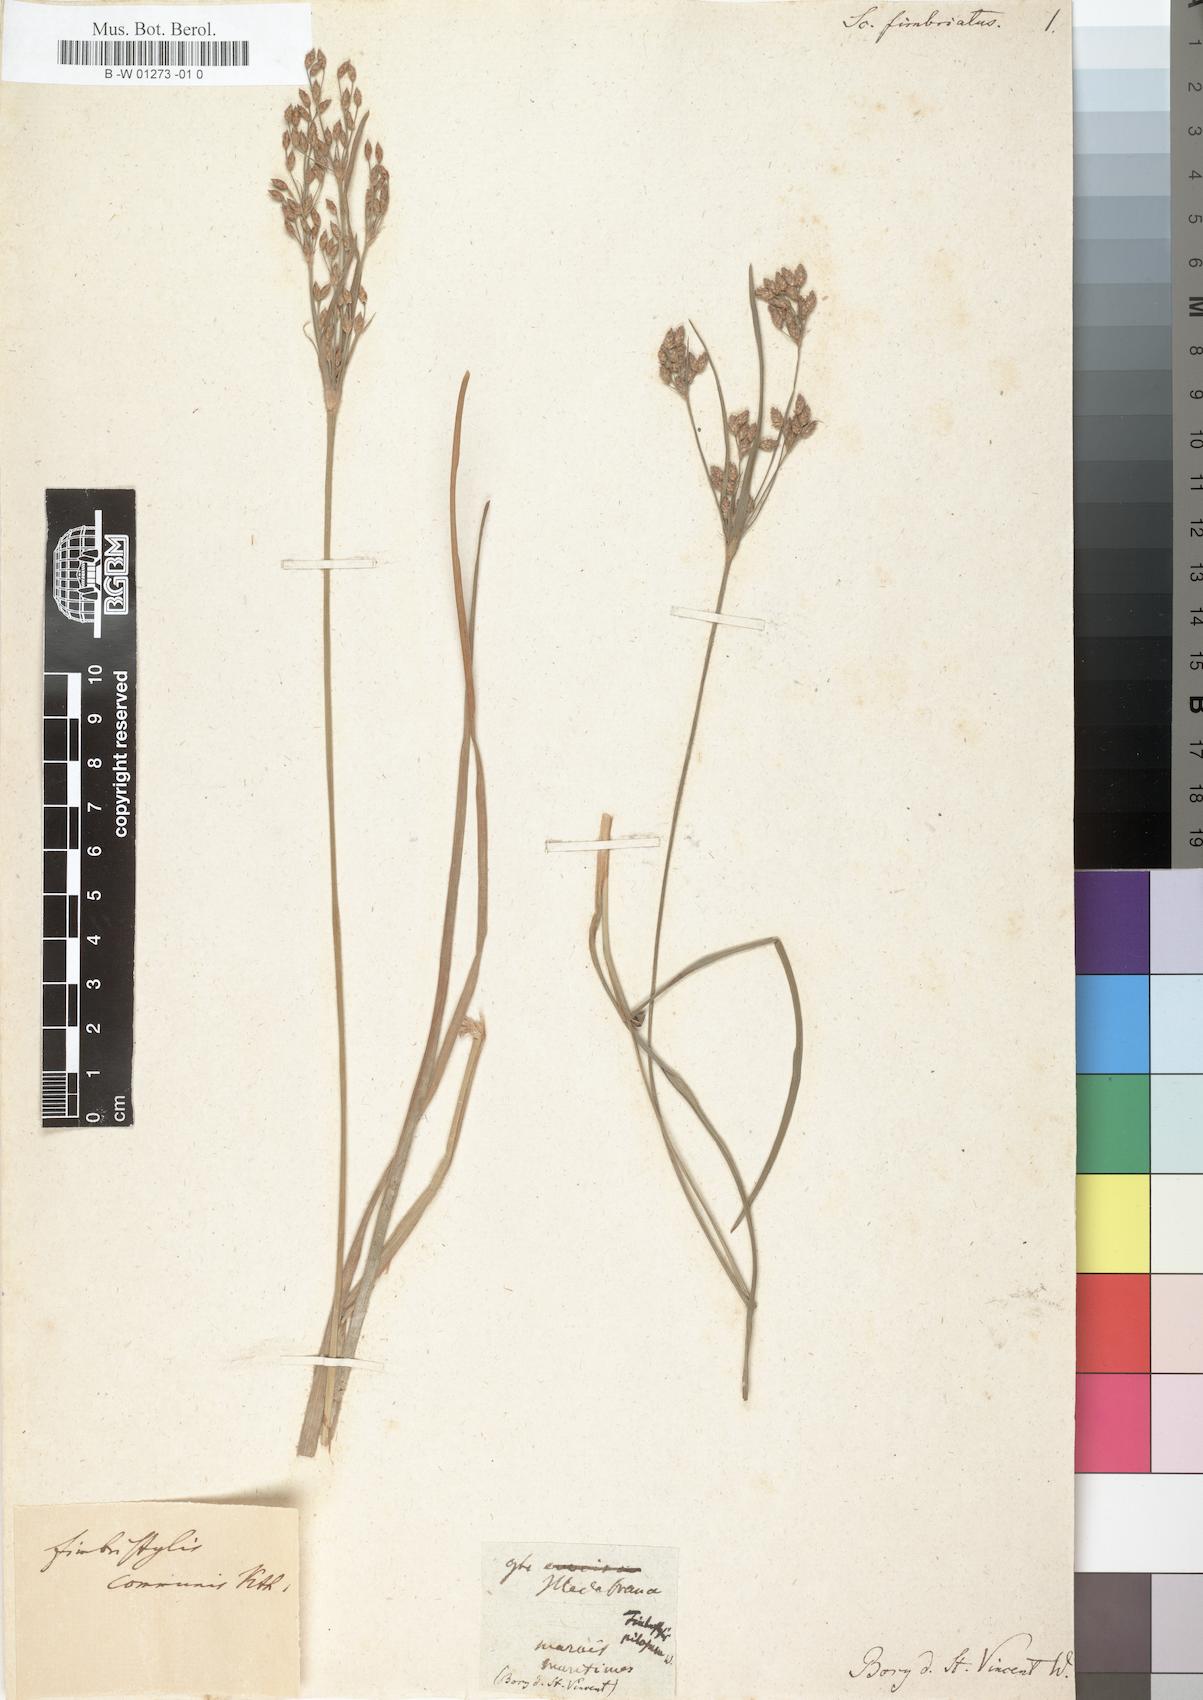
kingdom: Plantae
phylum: Tracheophyta
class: Liliopsida
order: Poales
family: Cyperaceae
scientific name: Cyperaceae
